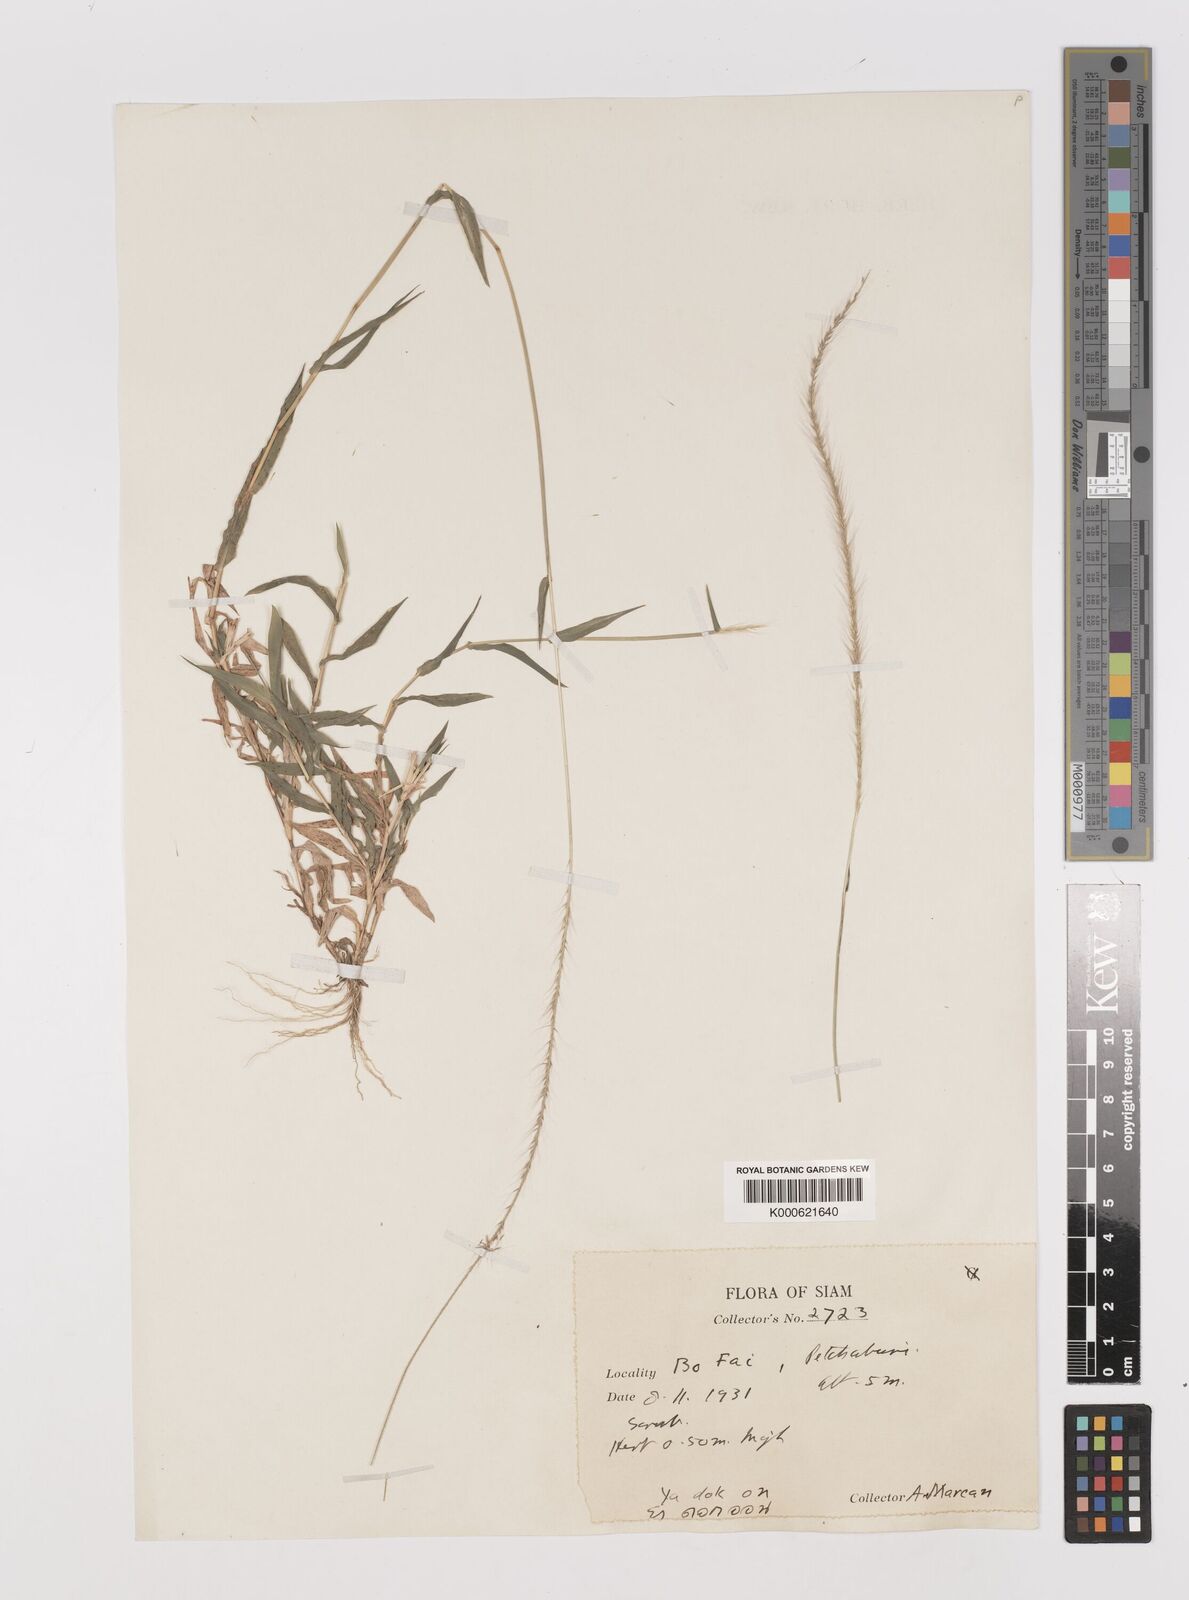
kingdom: Plantae
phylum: Tracheophyta
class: Liliopsida
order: Poales
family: Poaceae
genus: Perotis
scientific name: Perotis hordeiformis
